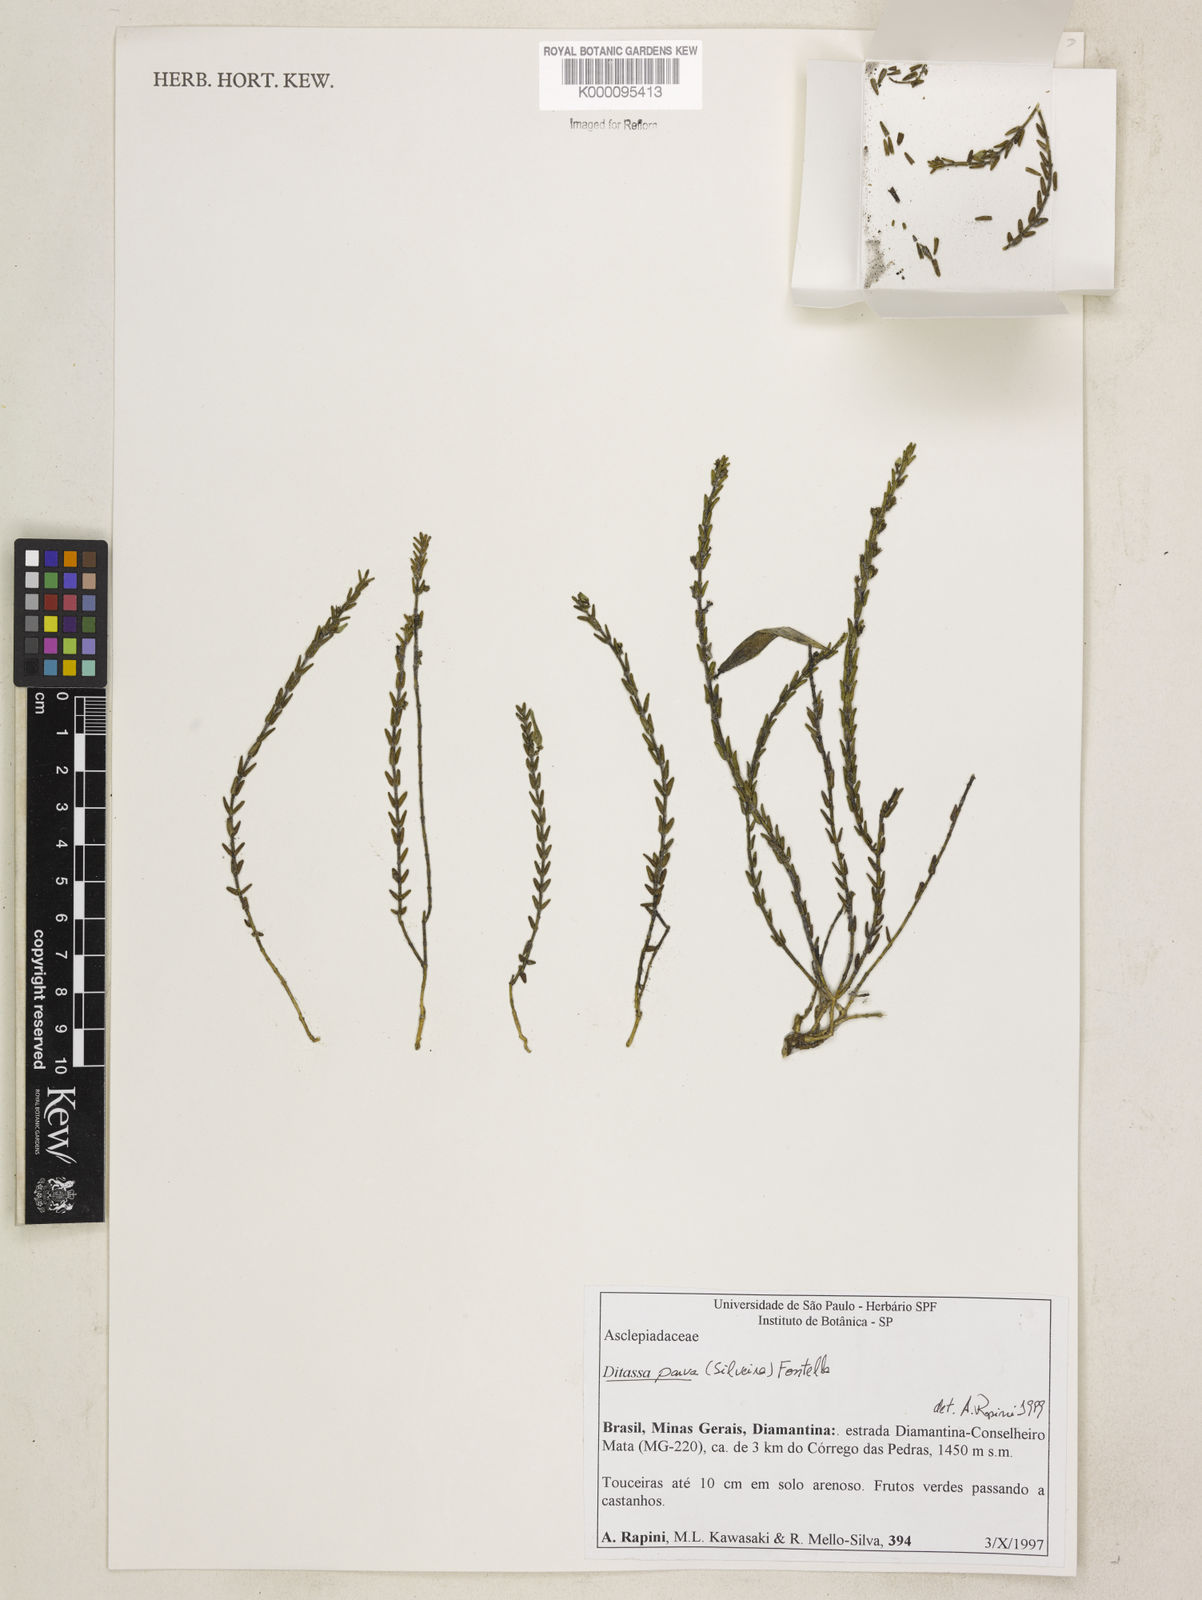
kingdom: Plantae
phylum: Tracheophyta
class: Magnoliopsida
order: Gentianales
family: Apocynaceae
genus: Minaria
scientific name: Minaria parva
